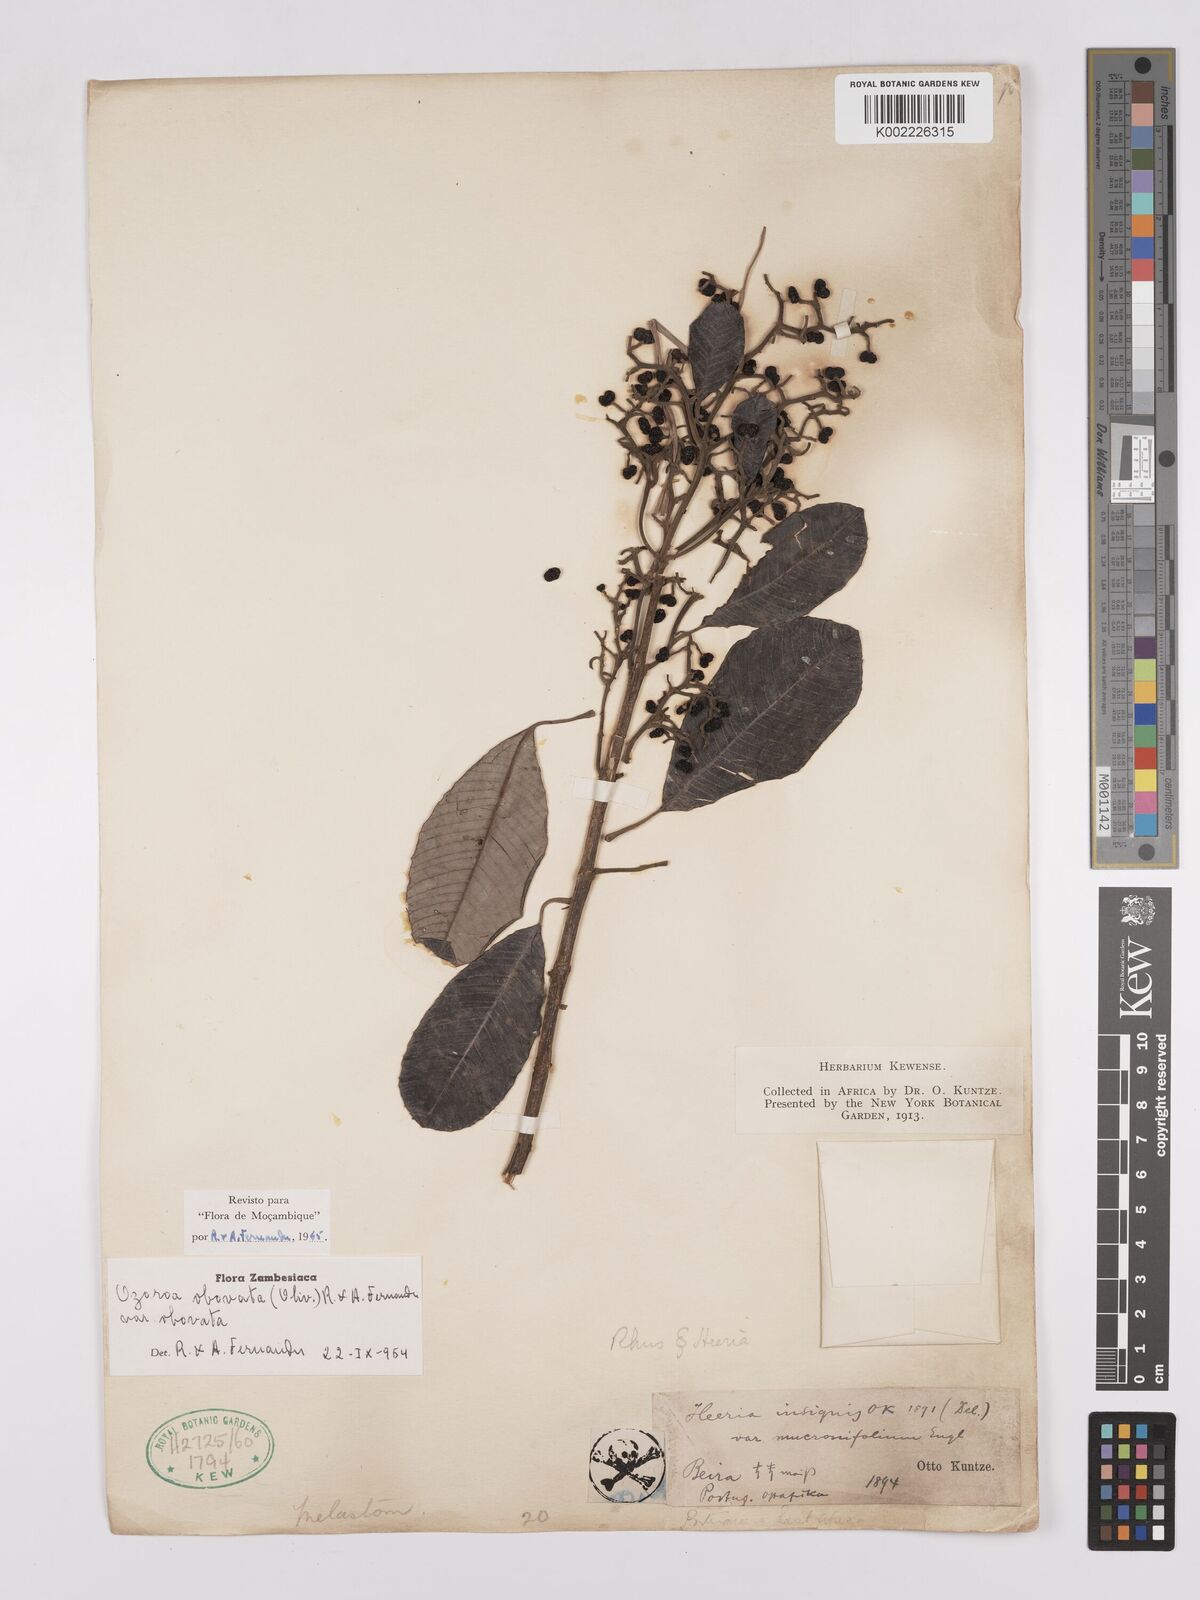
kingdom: Plantae
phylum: Tracheophyta
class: Magnoliopsida
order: Sapindales
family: Anacardiaceae
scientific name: Anacardiaceae
